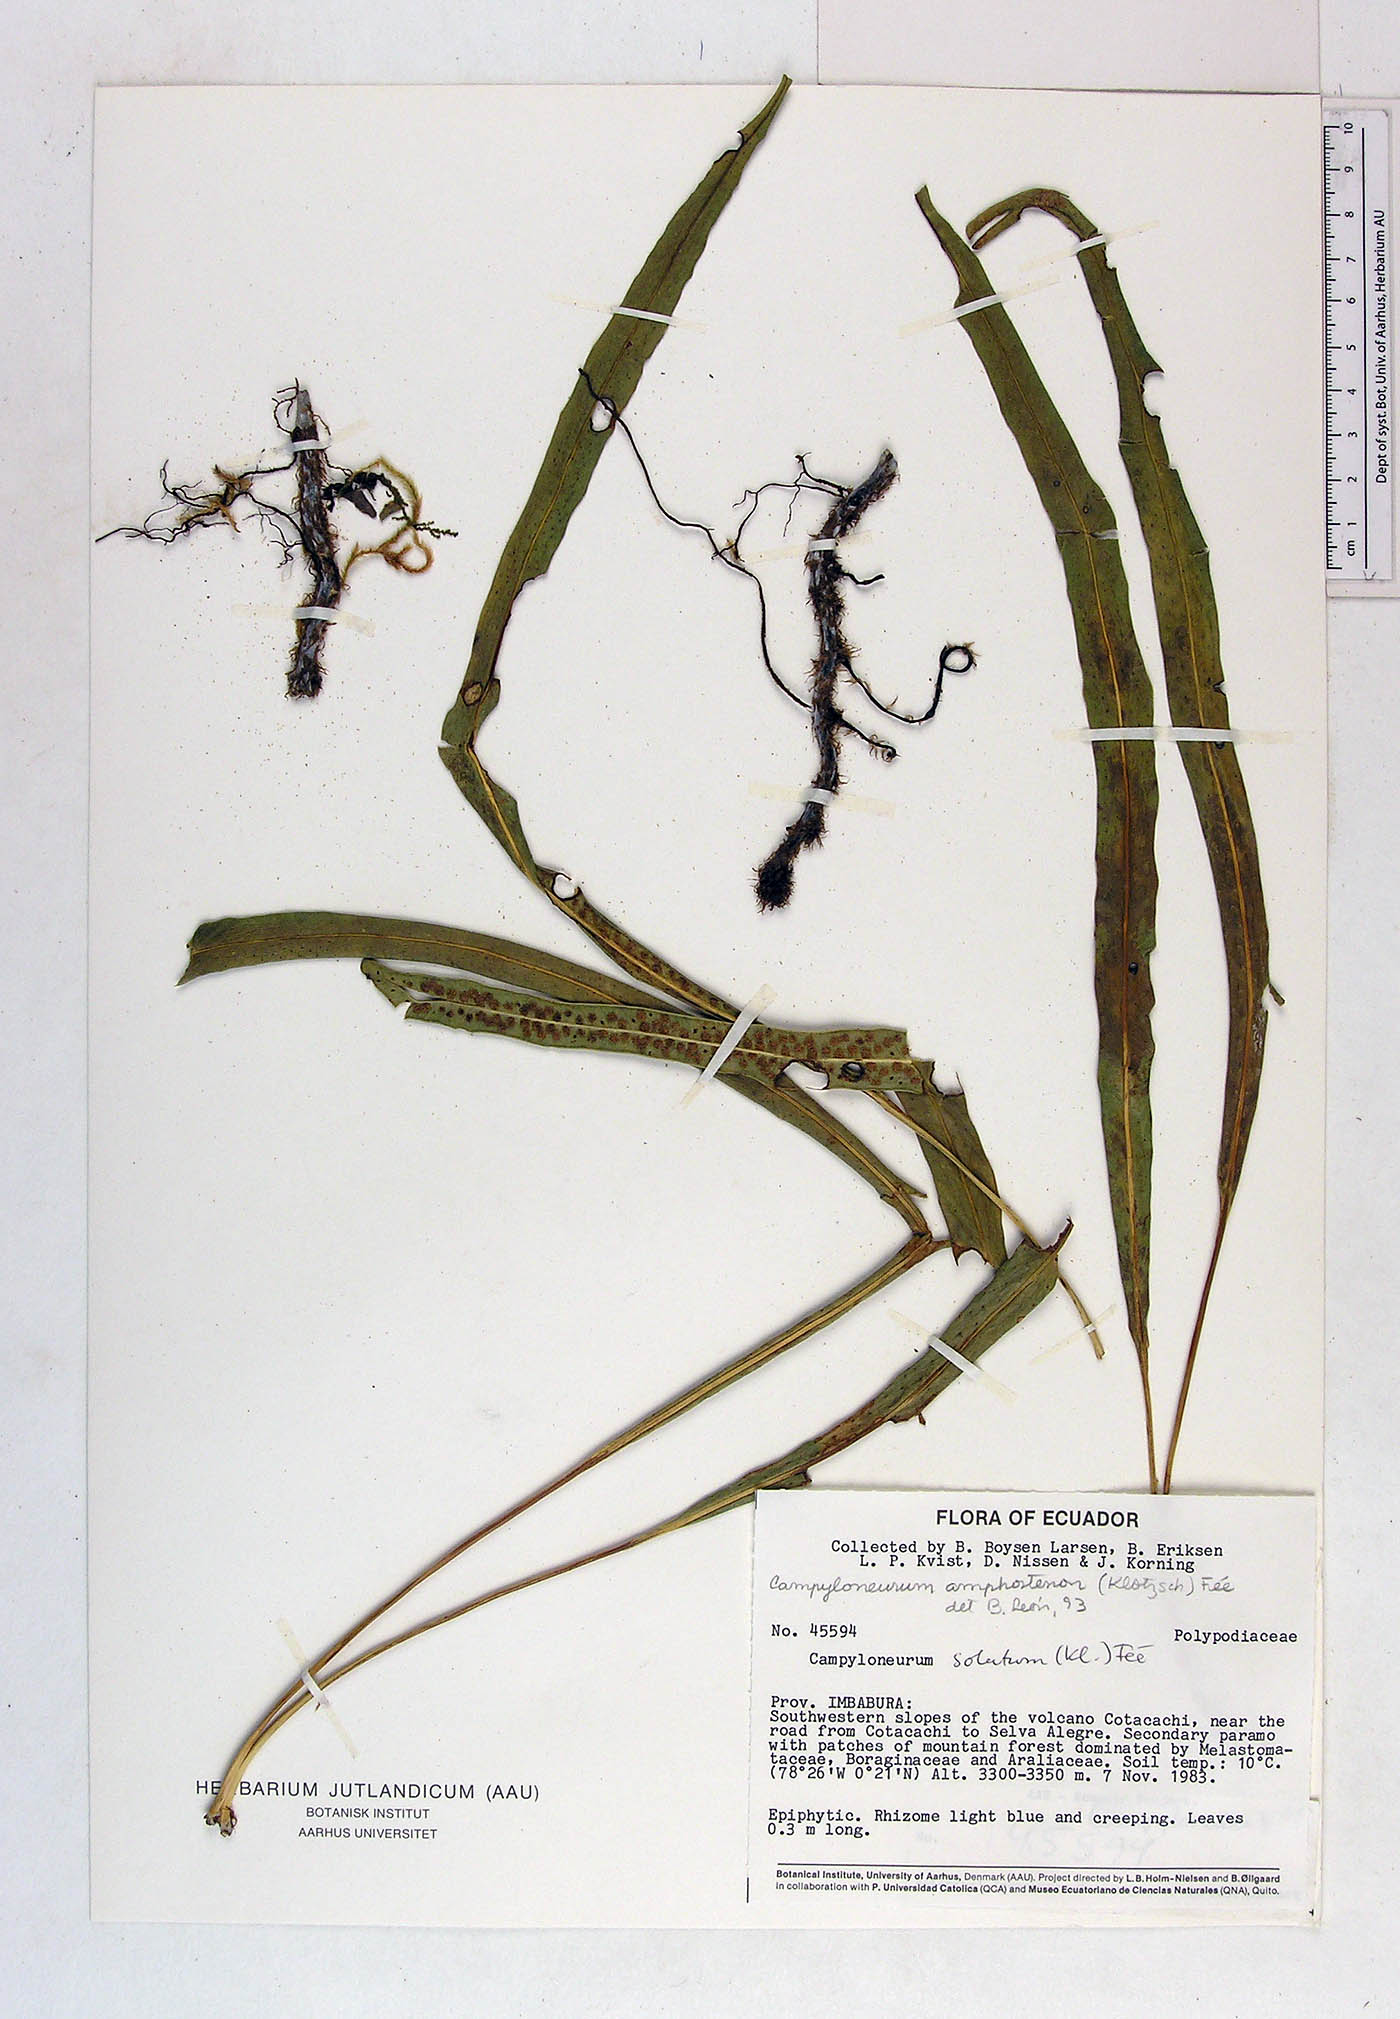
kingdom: Plantae
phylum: Tracheophyta
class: Polypodiopsida
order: Polypodiales
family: Polypodiaceae
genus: Campyloneurum
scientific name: Campyloneurum
